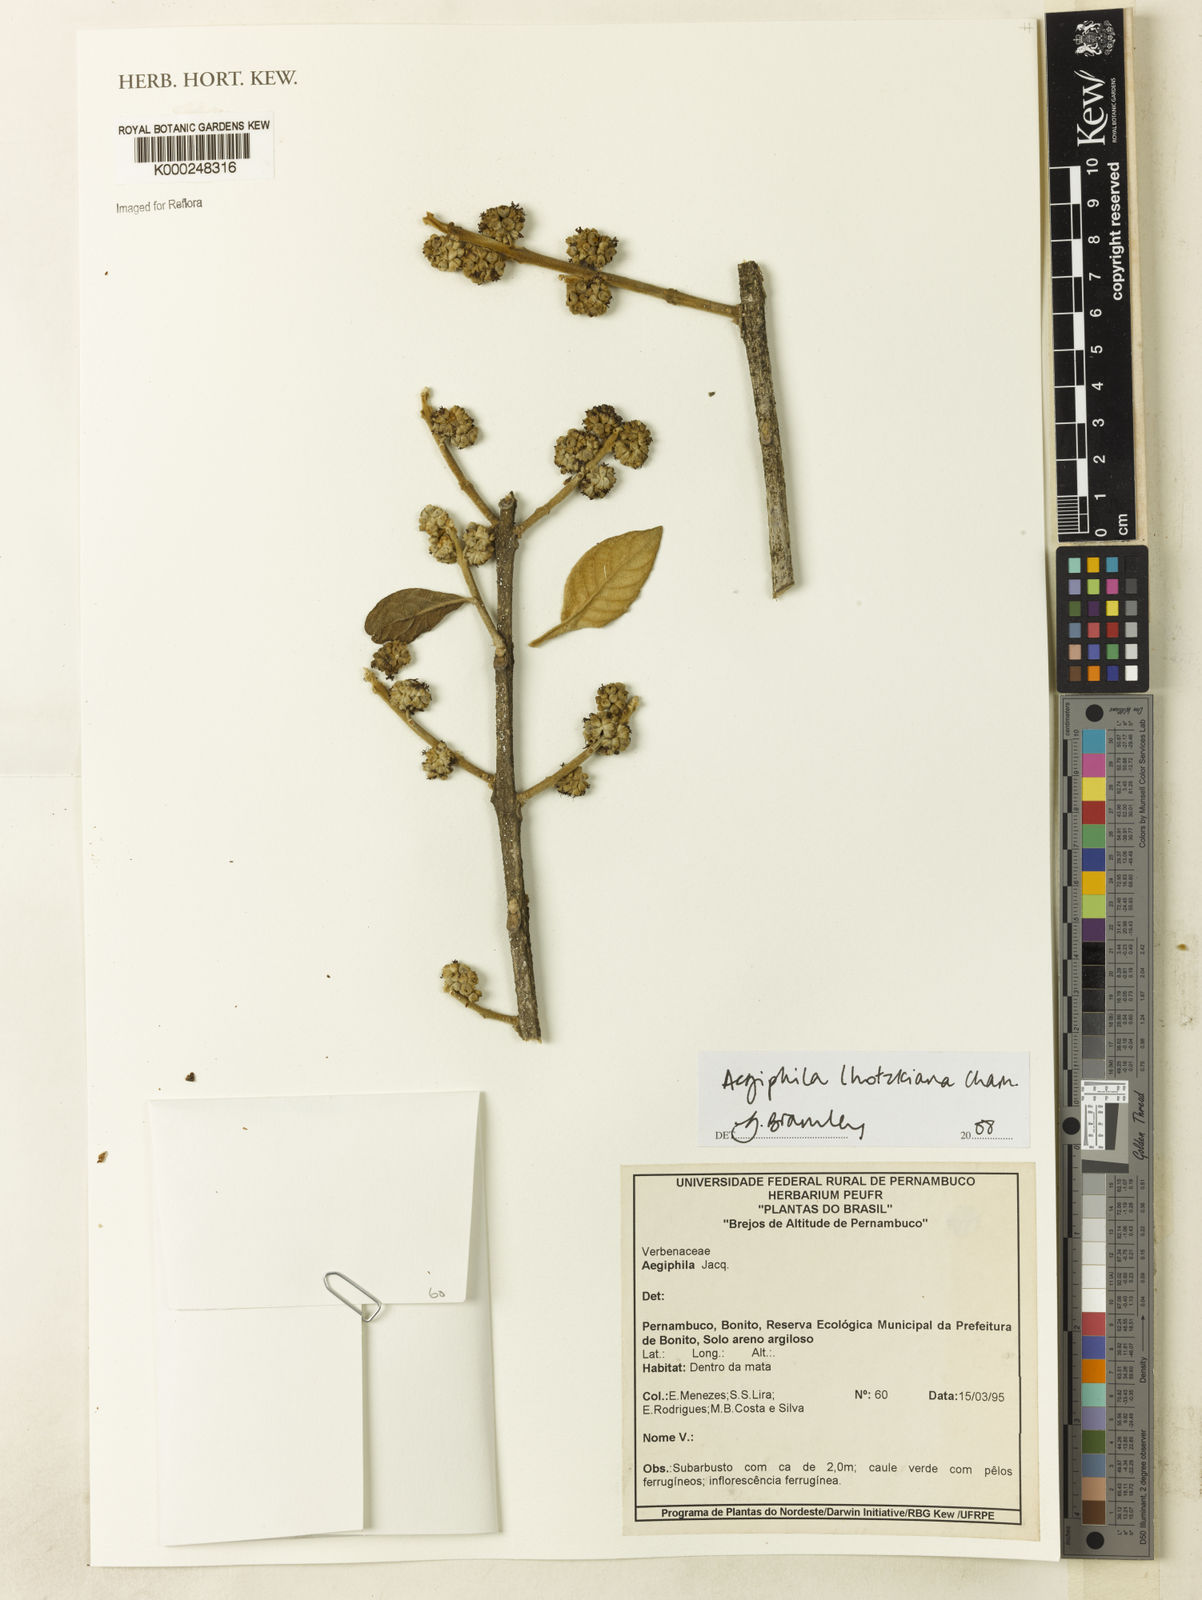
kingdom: Plantae
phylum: Tracheophyta
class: Magnoliopsida
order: Lamiales
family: Lamiaceae
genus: Aegiphila
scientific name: Aegiphila verticillata
